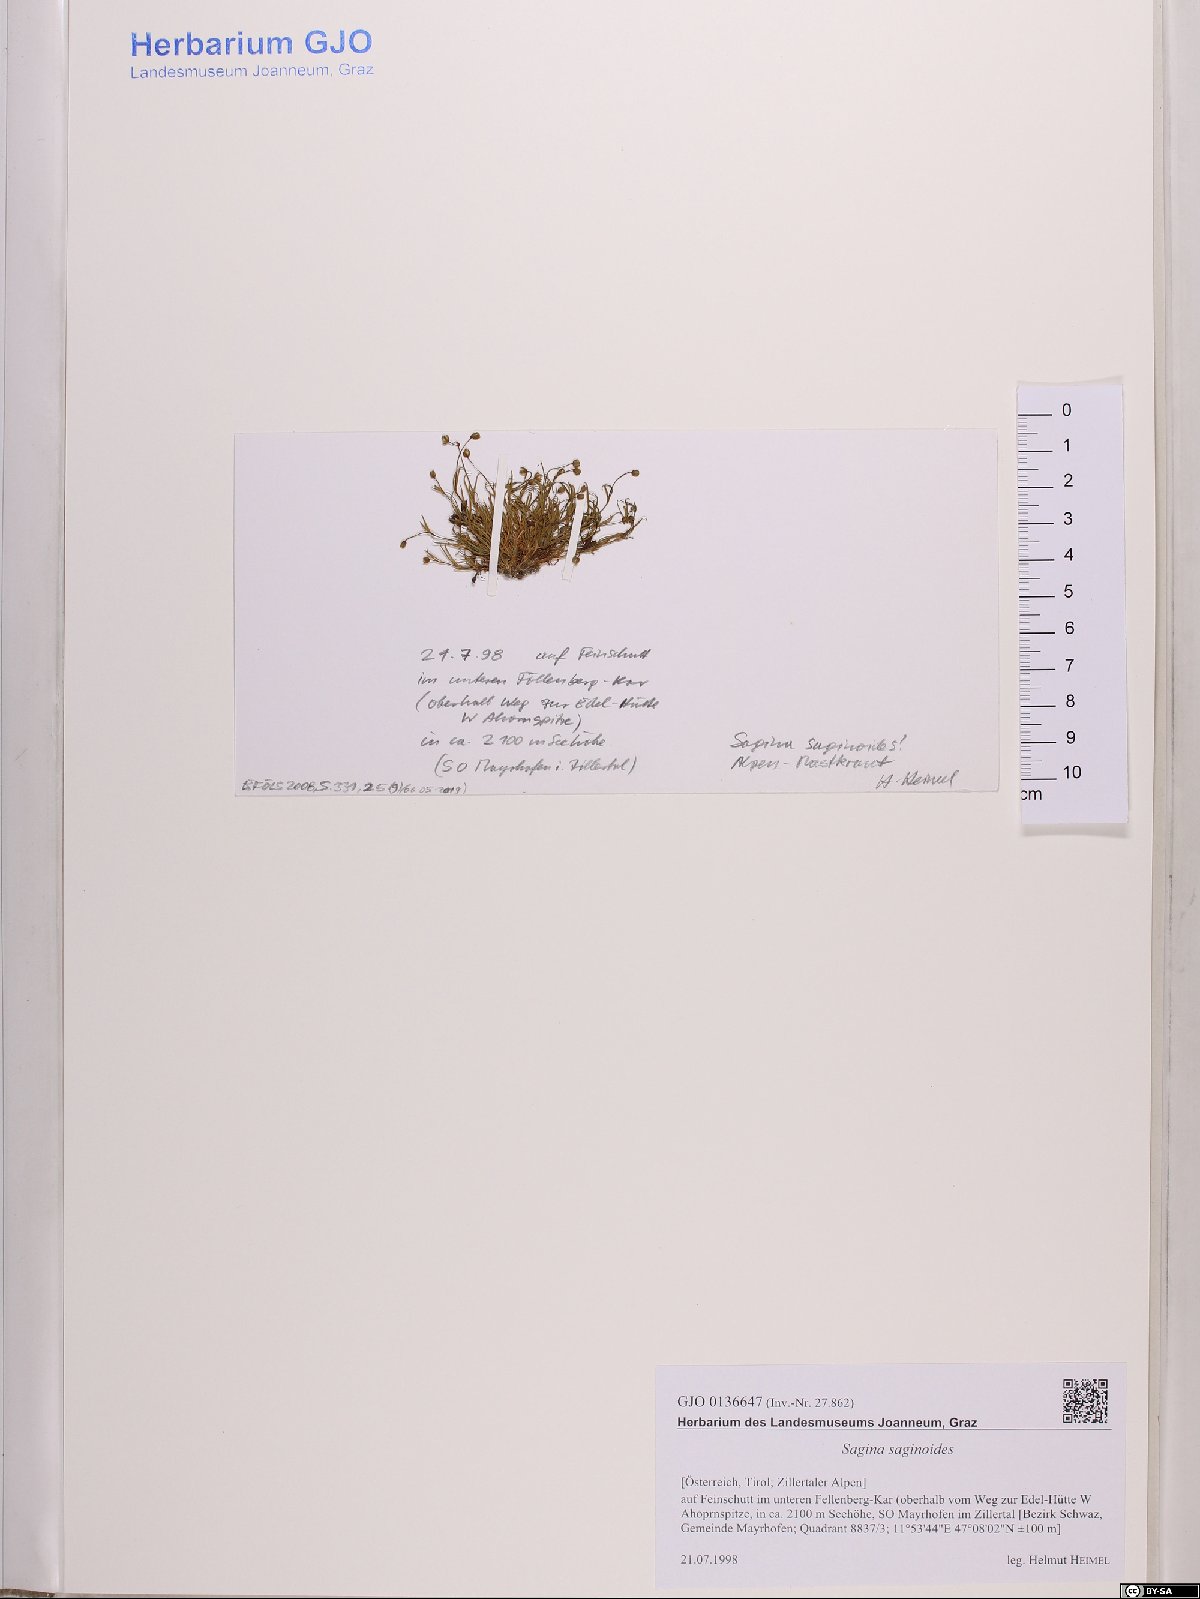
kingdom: Plantae
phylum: Tracheophyta
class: Magnoliopsida
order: Caryophyllales
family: Caryophyllaceae
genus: Sagina
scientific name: Sagina saginoides
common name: Alpine pearlwort
